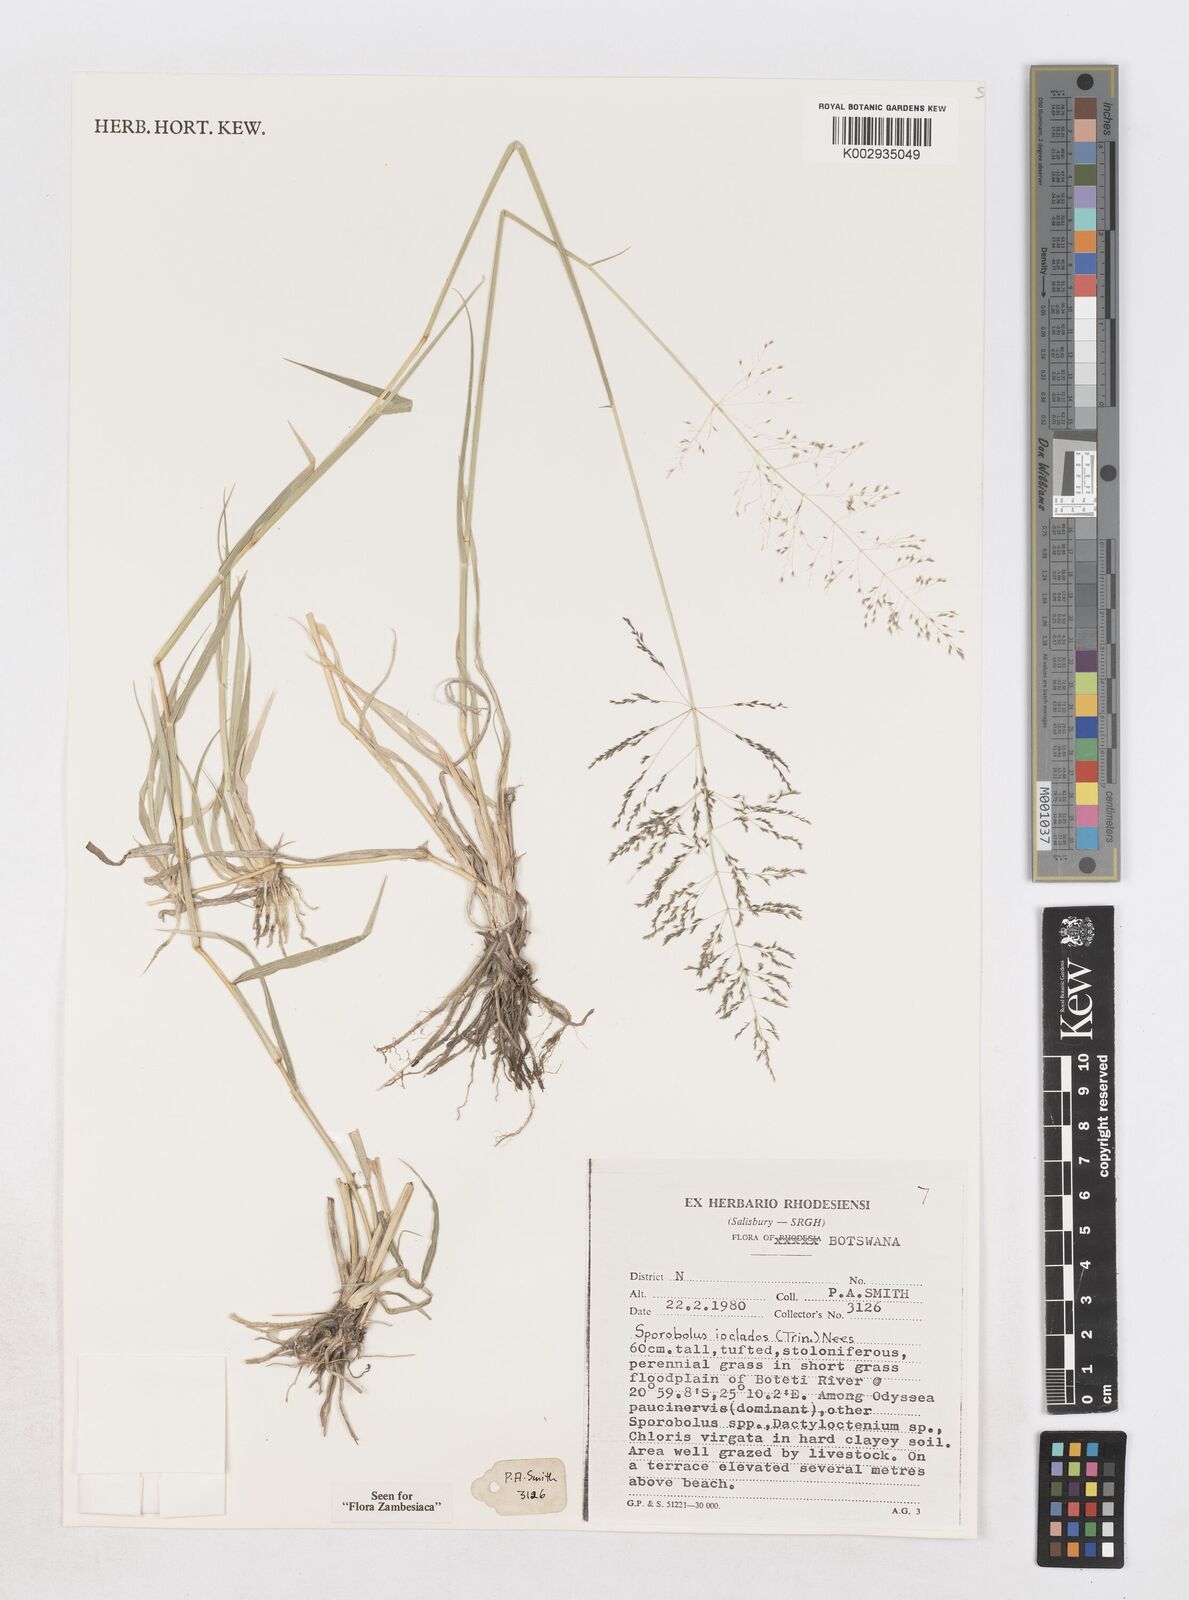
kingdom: Plantae
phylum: Tracheophyta
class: Liliopsida
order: Poales
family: Poaceae
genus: Sporobolus
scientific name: Sporobolus ioclados
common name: Pan dropseed
